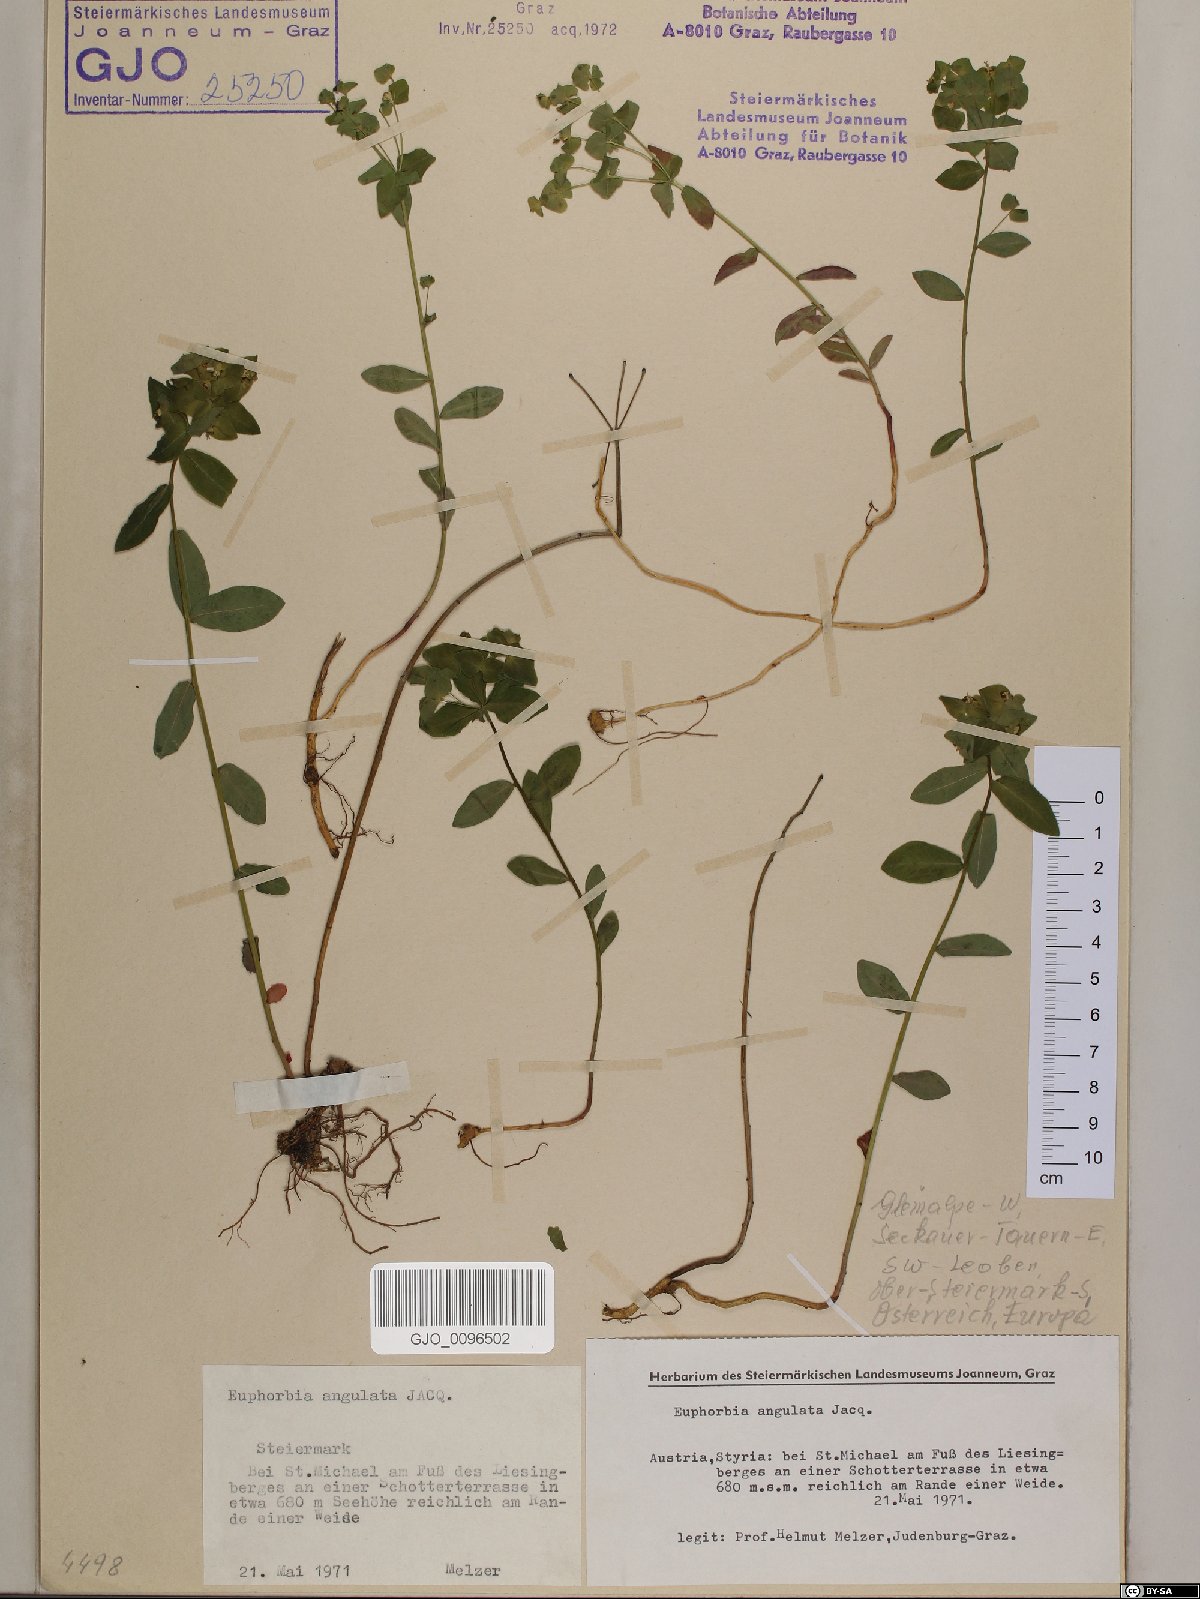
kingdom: Plantae
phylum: Tracheophyta
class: Magnoliopsida
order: Malpighiales
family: Euphorbiaceae
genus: Euphorbia
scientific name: Euphorbia angulata
